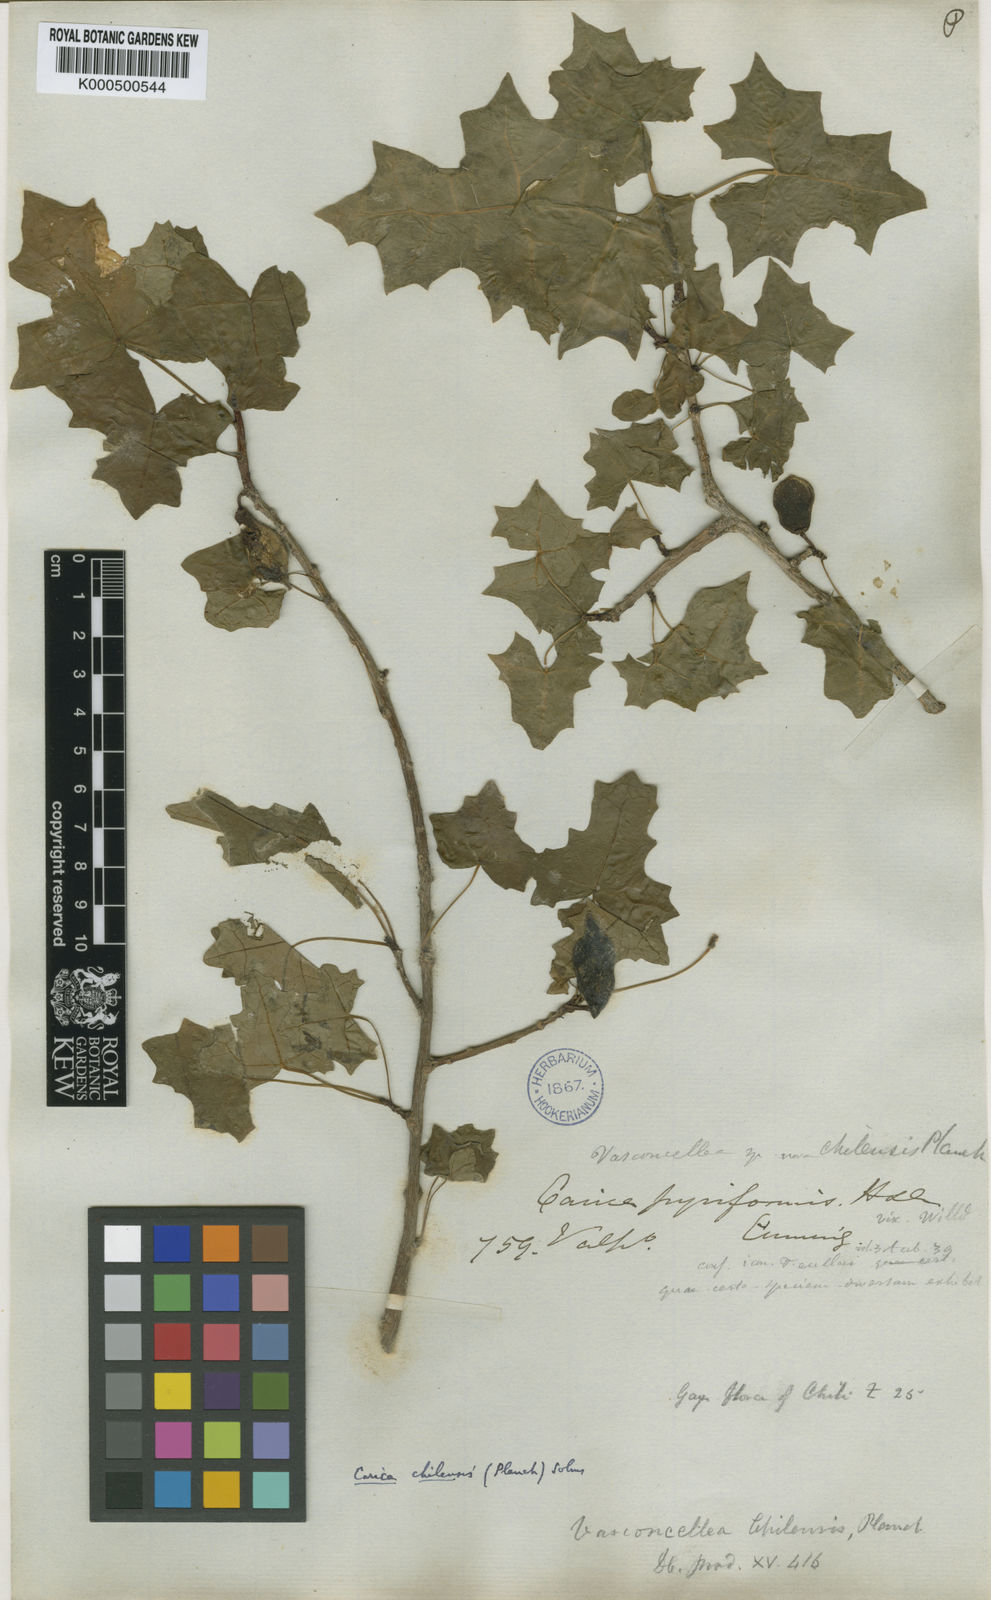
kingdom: Plantae
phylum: Tracheophyta
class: Magnoliopsida
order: Brassicales
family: Caricaceae
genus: Vasconcellea
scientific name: Vasconcellea
